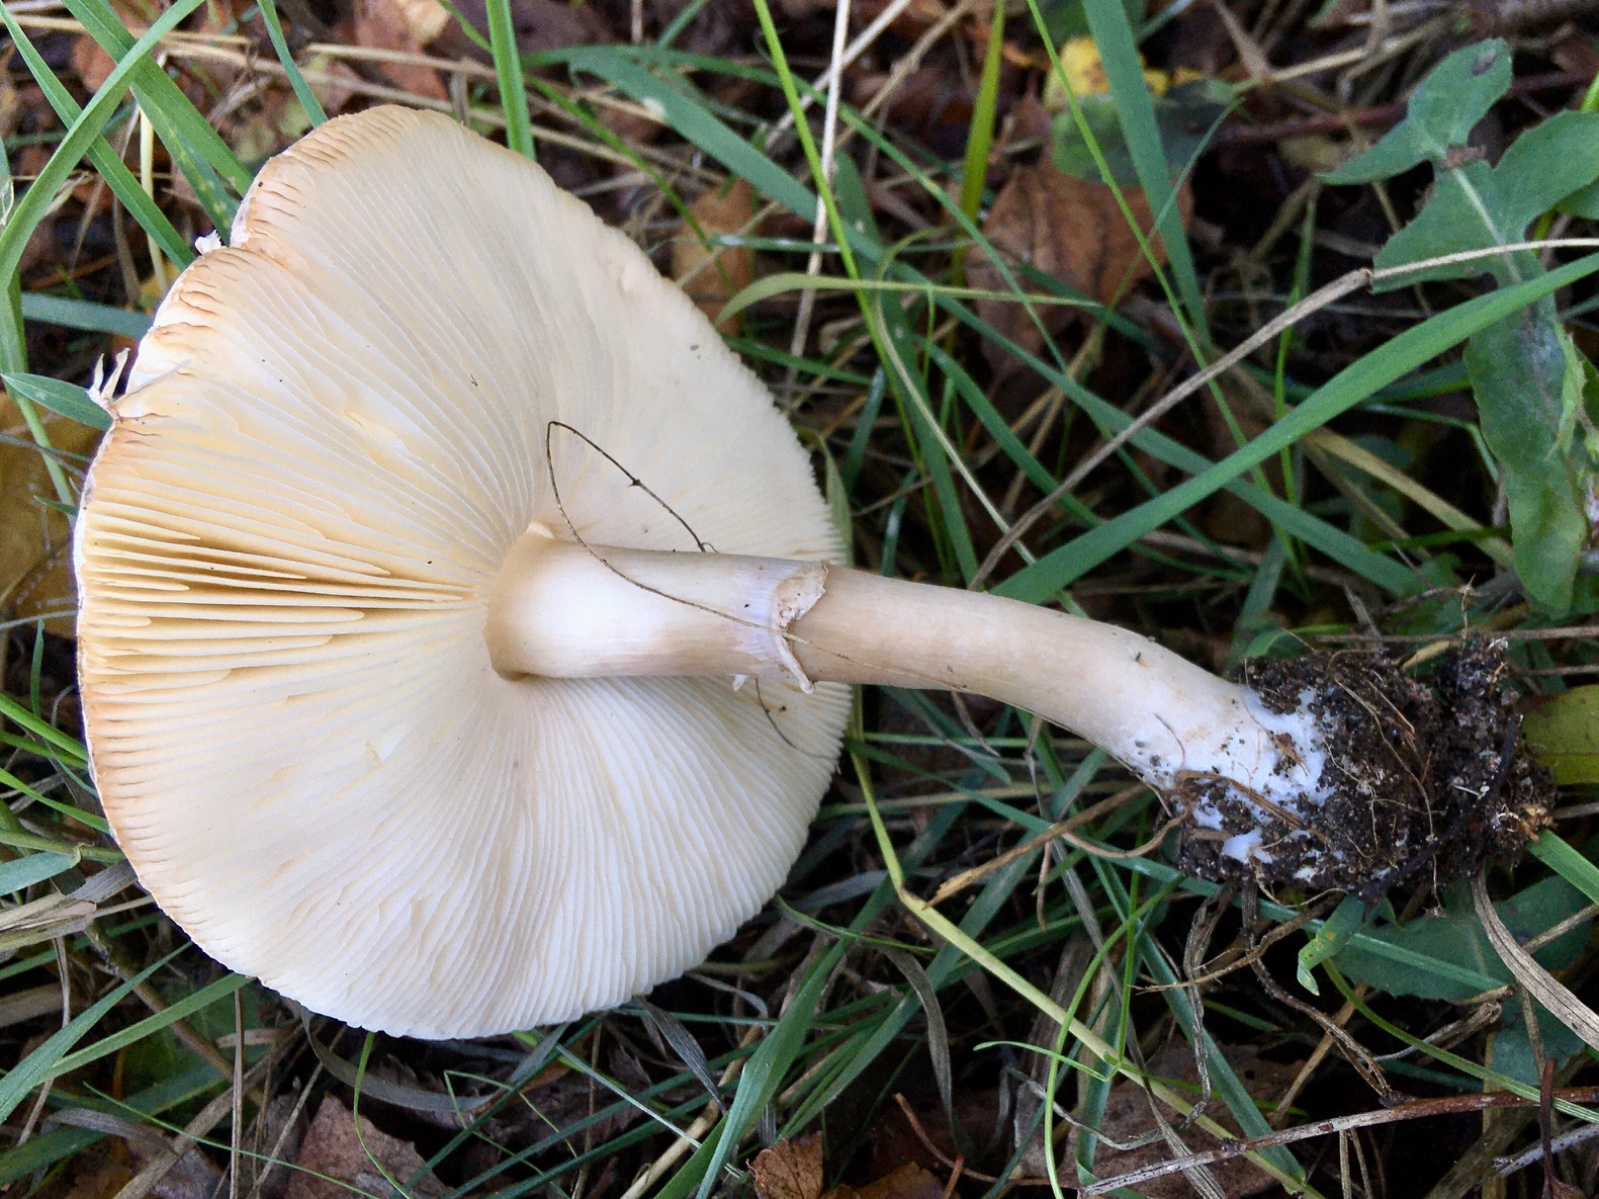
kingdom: Fungi
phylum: Basidiomycota
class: Agaricomycetes
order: Agaricales
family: Agaricaceae
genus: Leucoagaricus
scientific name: Leucoagaricus leucothites
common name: rosabladet silkehat
